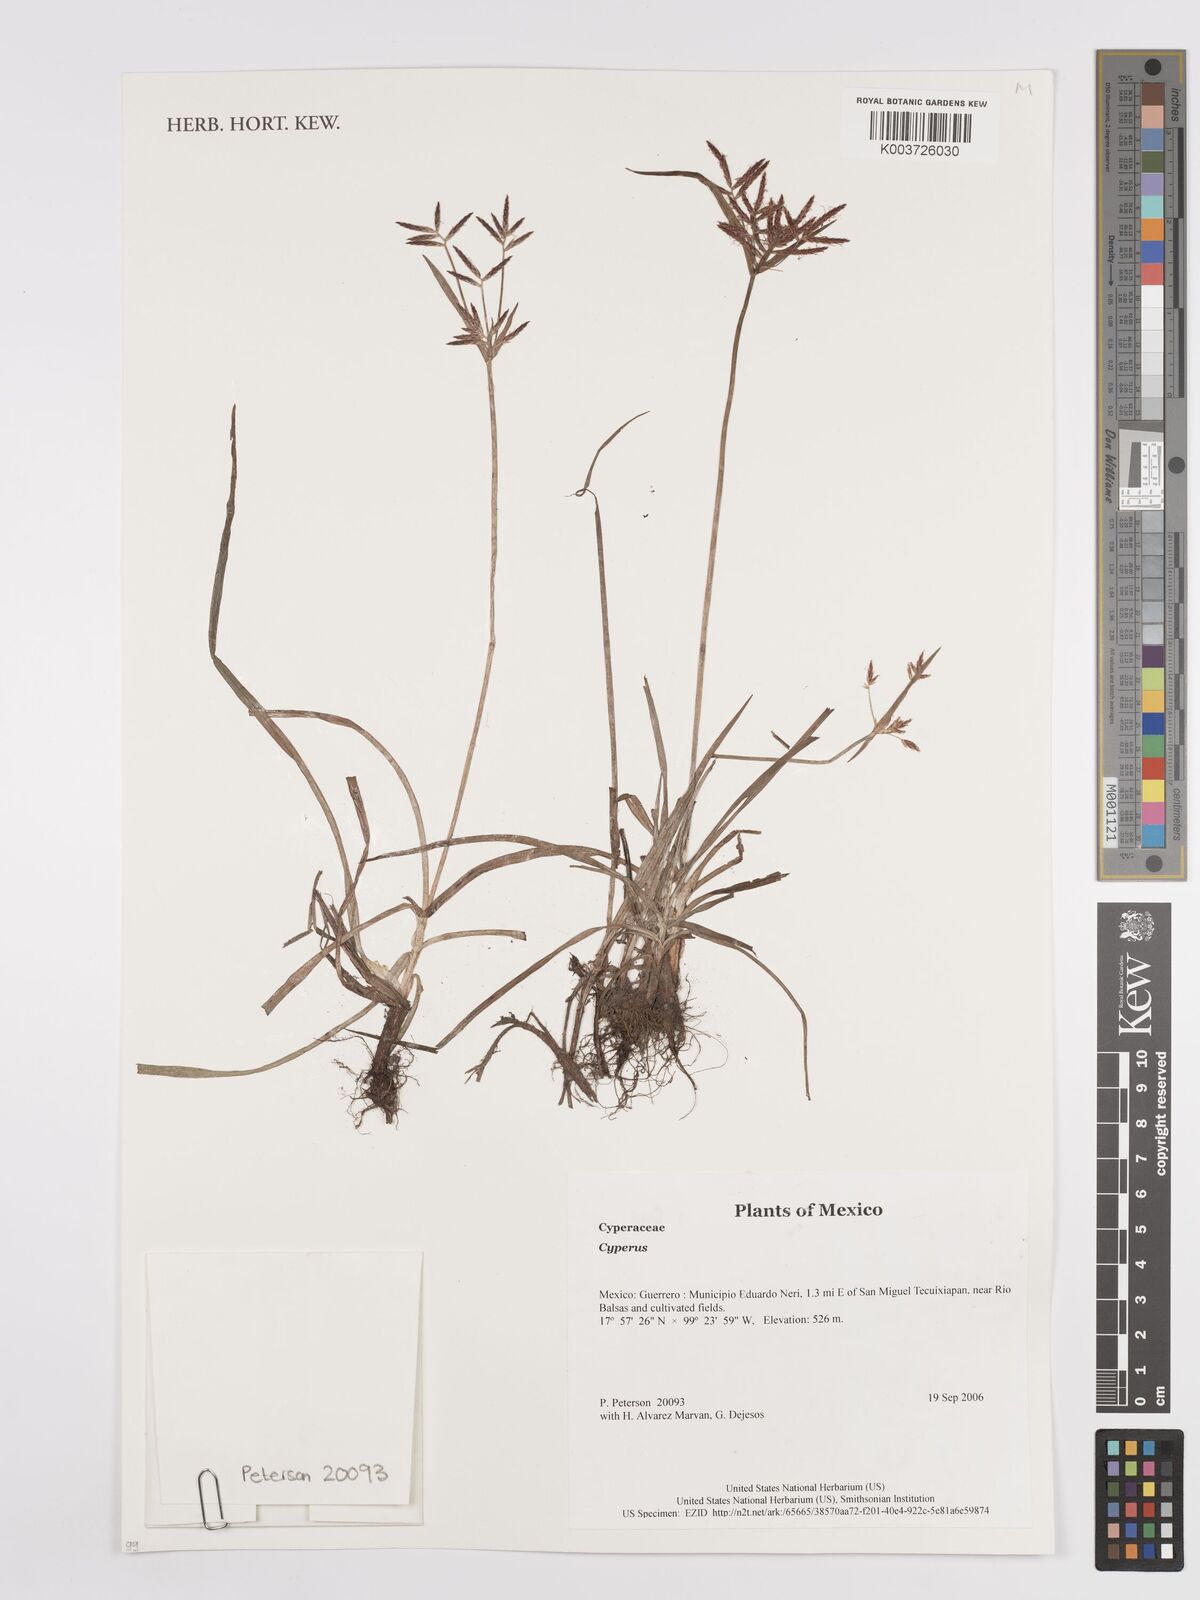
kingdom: Plantae
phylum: Tracheophyta
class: Liliopsida
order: Poales
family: Cyperaceae
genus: Cyperus
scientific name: Cyperus
